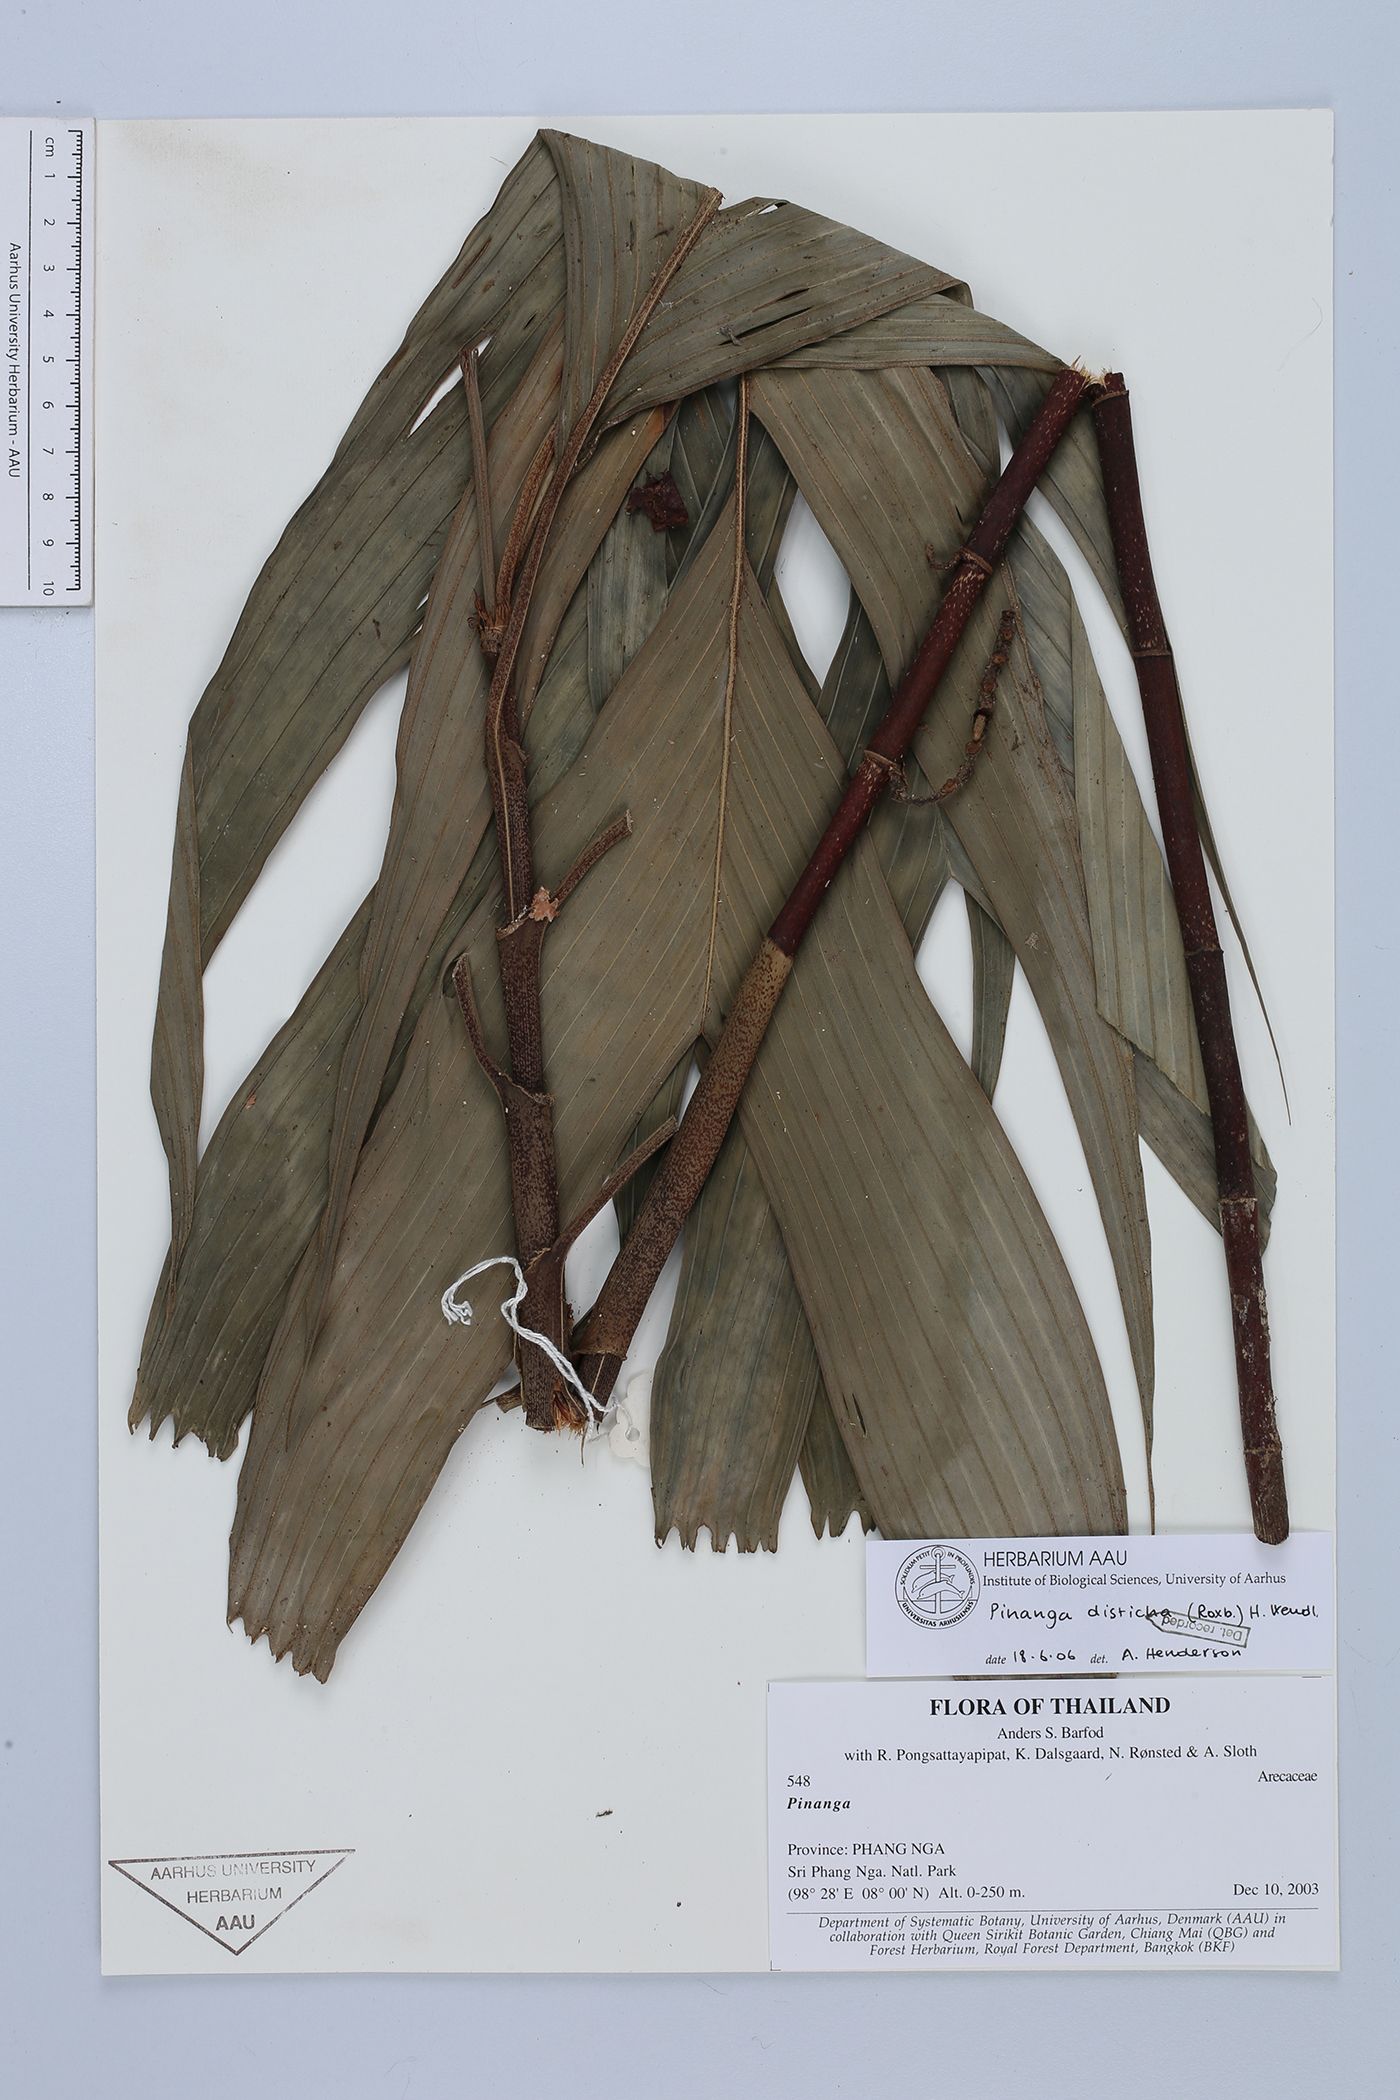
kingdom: Plantae
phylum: Tracheophyta
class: Liliopsida
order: Arecales
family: Arecaceae
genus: Pinanga
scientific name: Pinanga disticha
